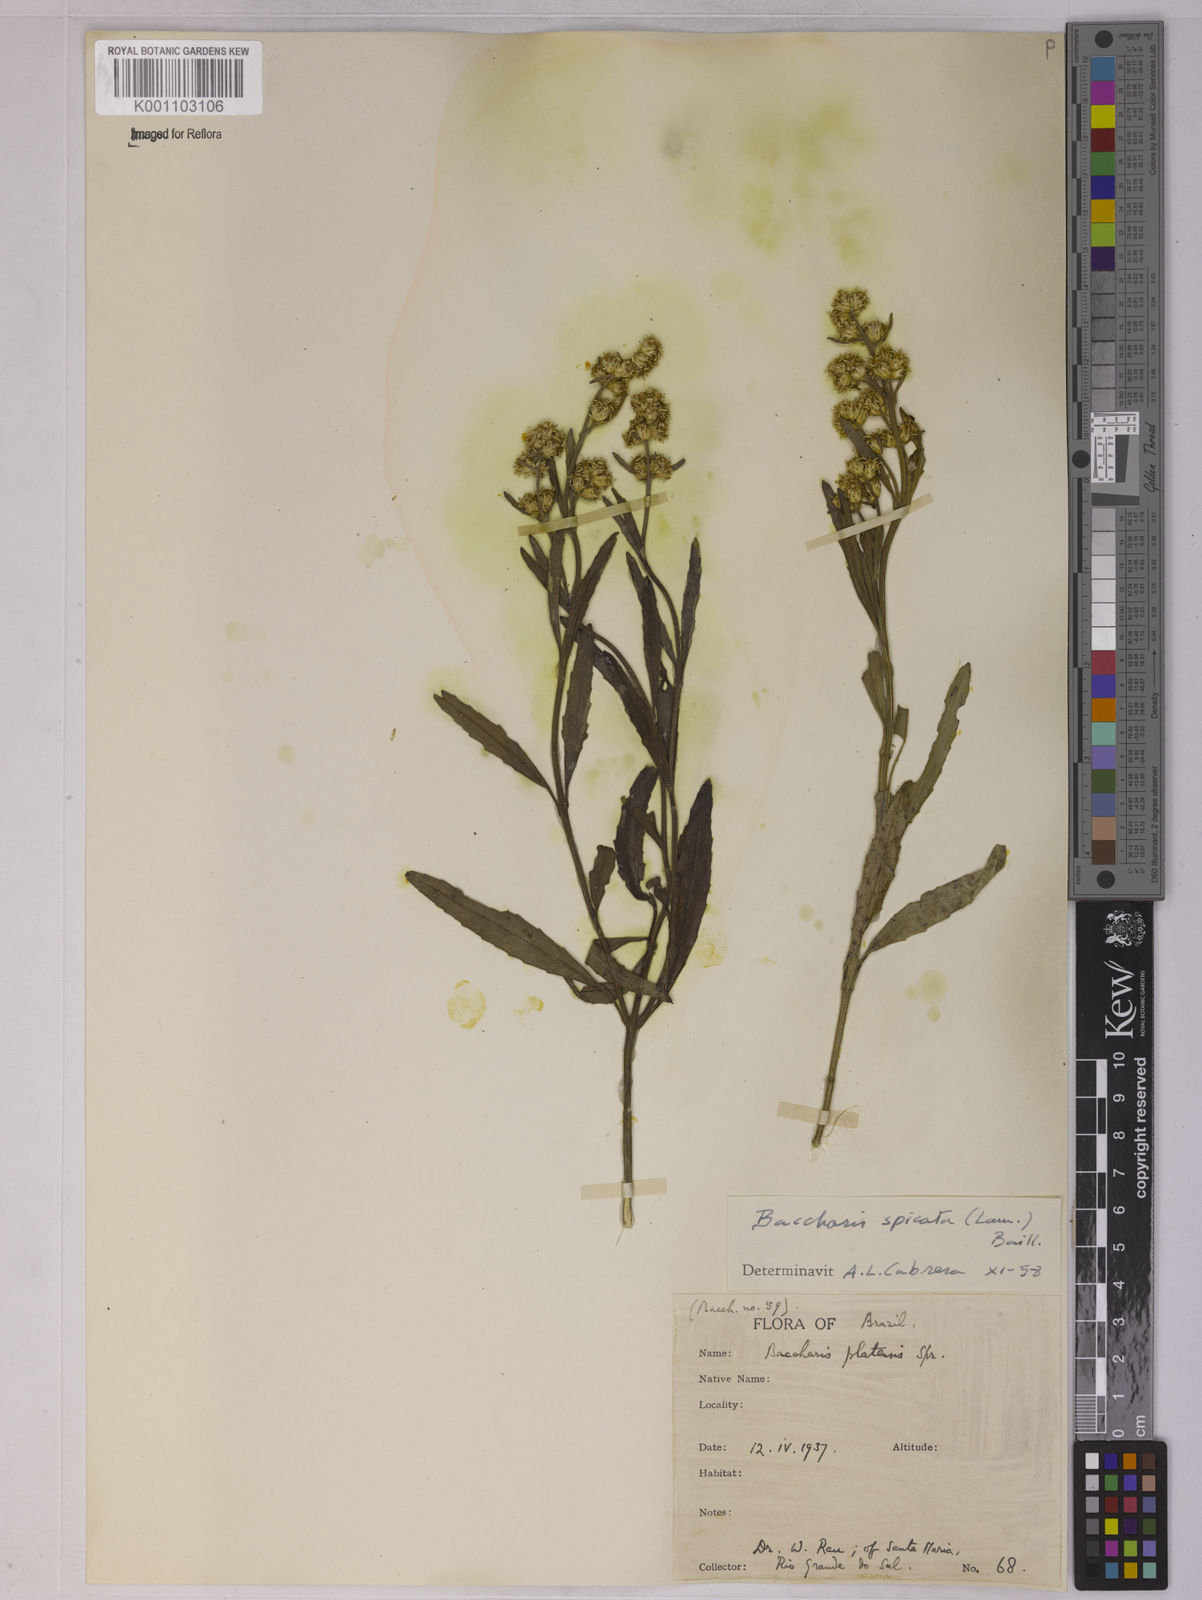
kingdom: Plantae
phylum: Tracheophyta
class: Magnoliopsida
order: Asterales
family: Asteraceae
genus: Baccharis
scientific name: Baccharis spicata
